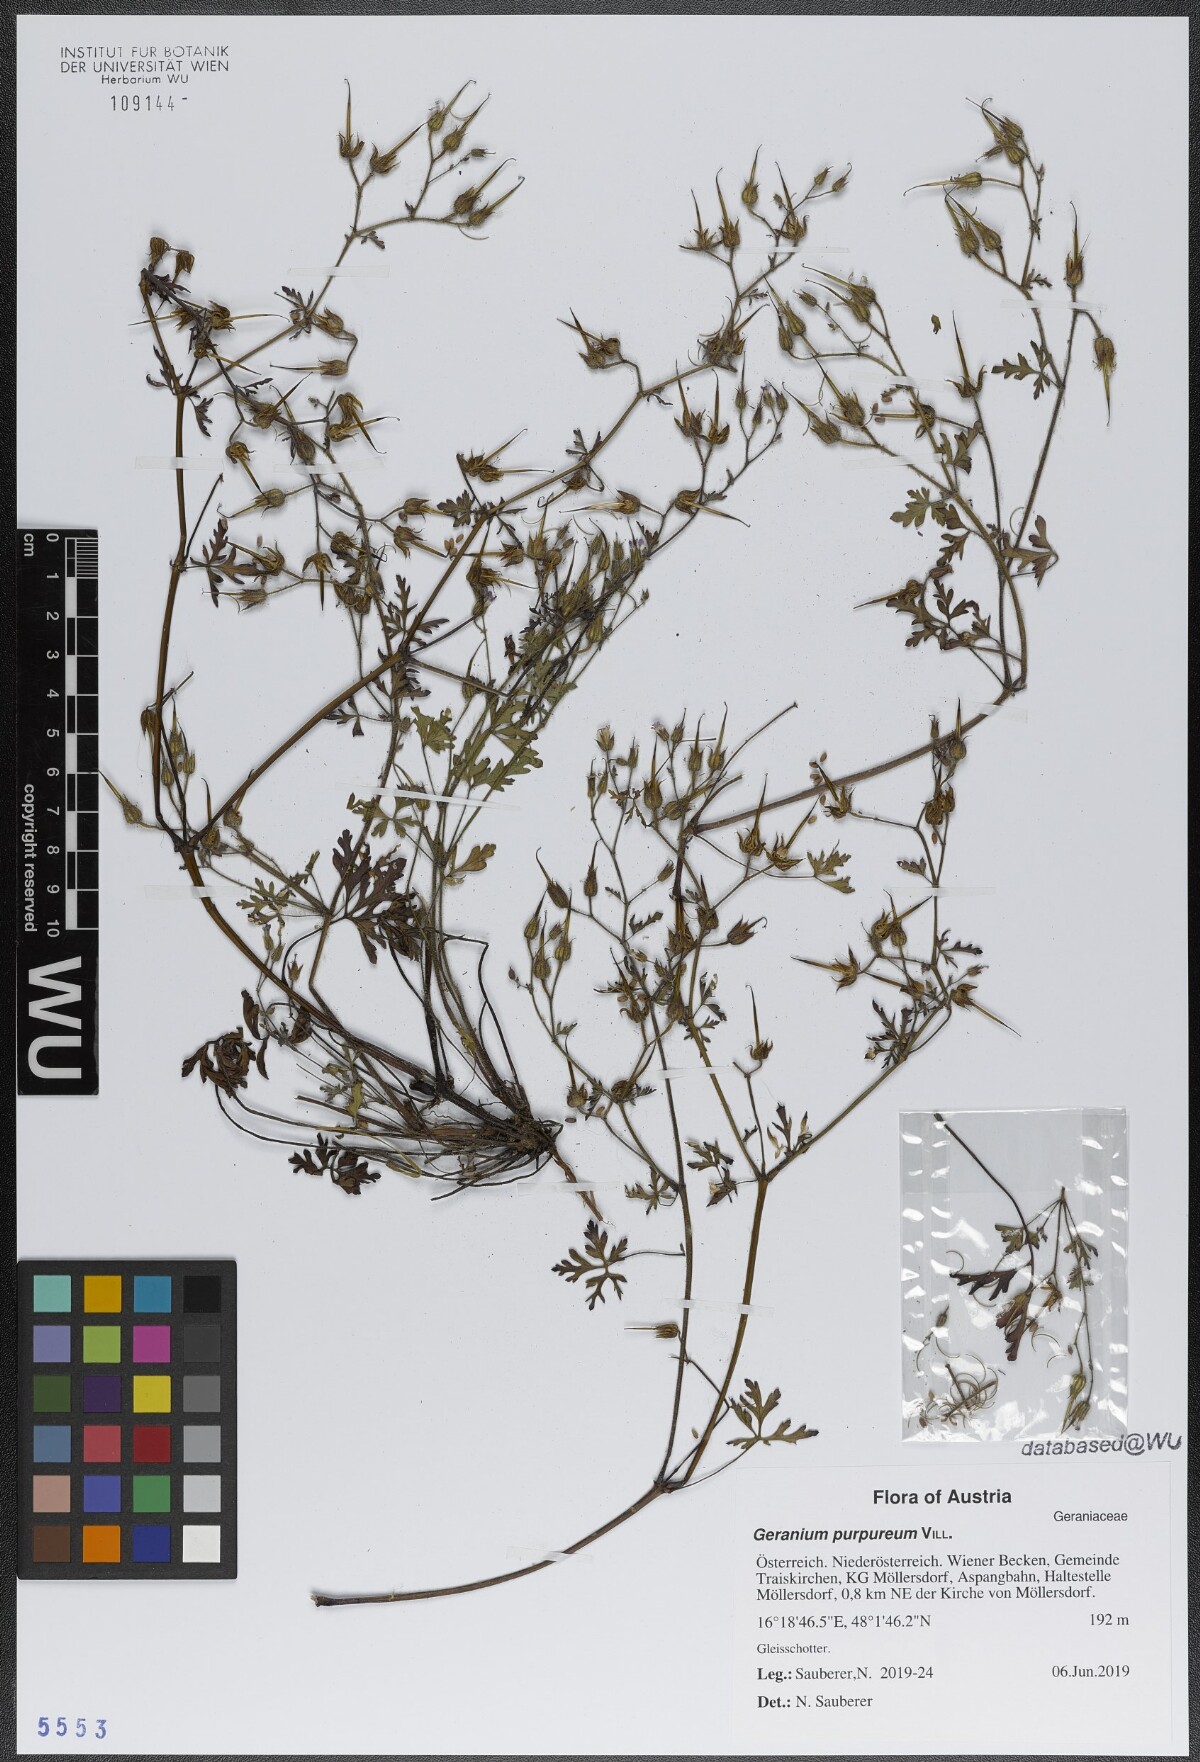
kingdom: Plantae
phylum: Tracheophyta
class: Magnoliopsida
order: Geraniales
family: Geraniaceae
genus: Geranium
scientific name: Geranium purpureum
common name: Little-robin
